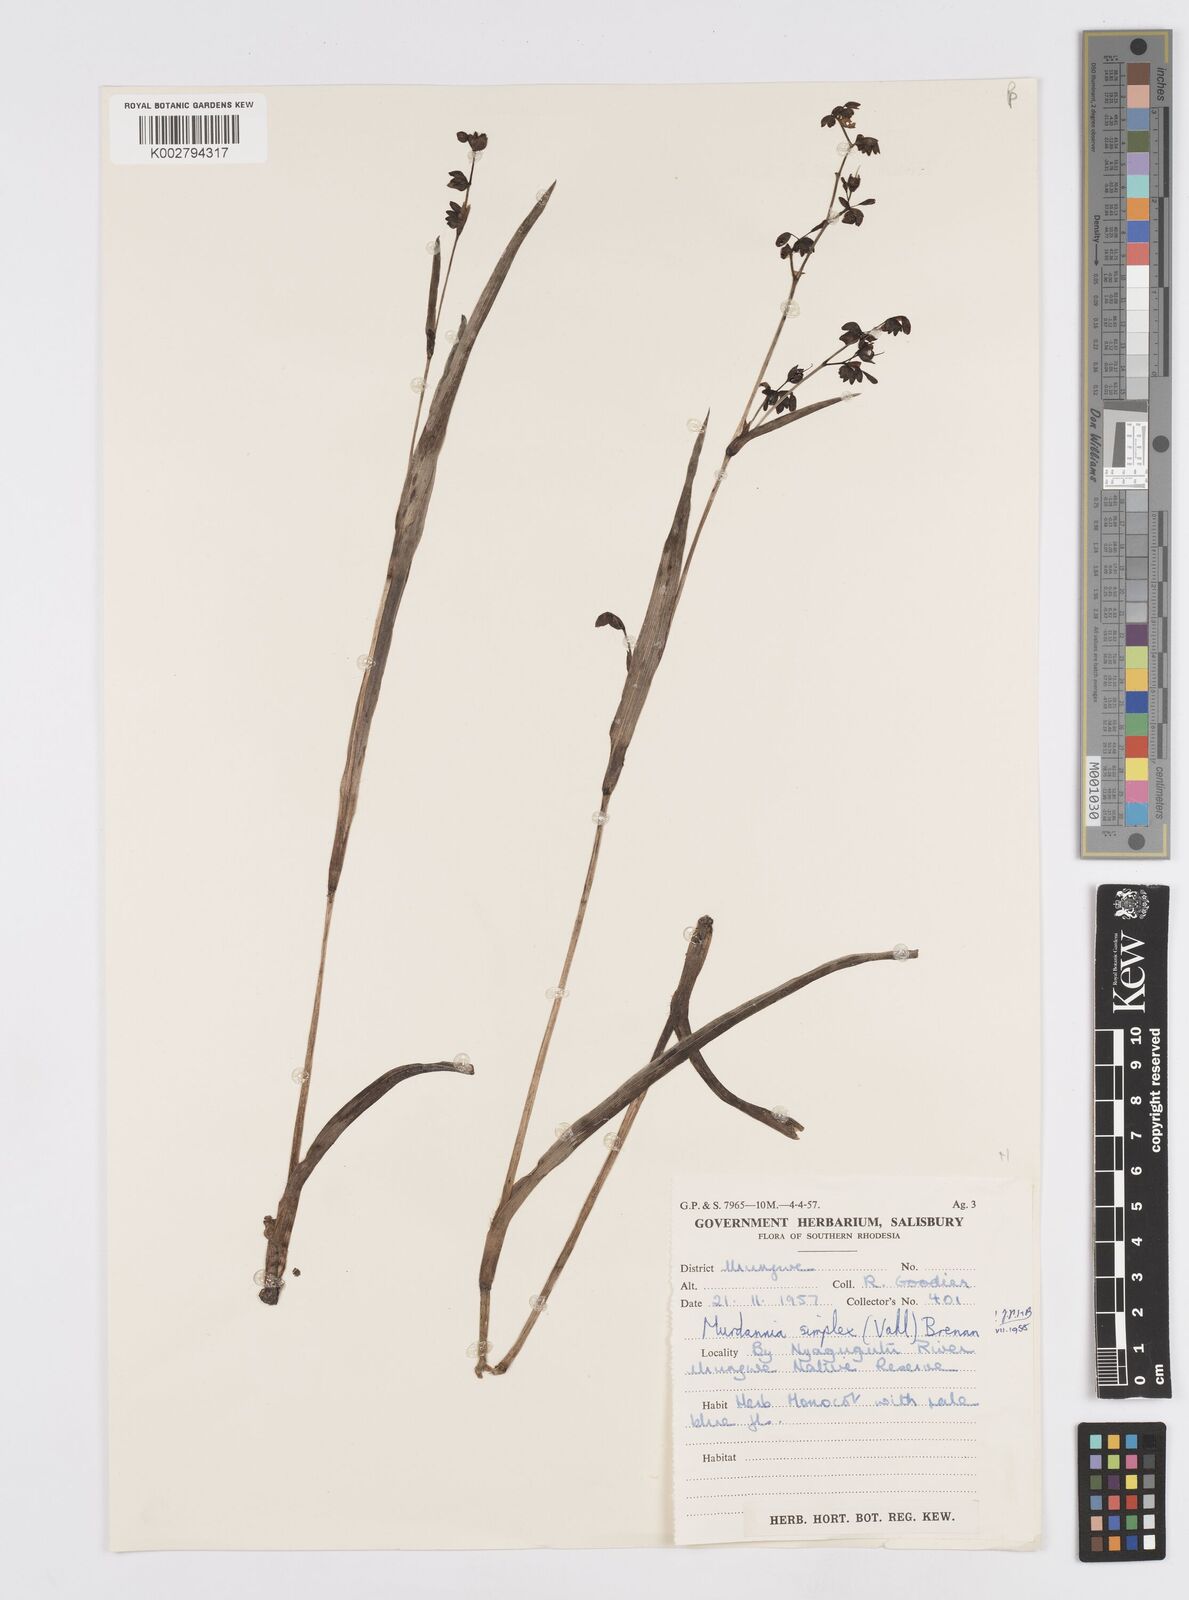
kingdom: Plantae
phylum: Tracheophyta
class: Liliopsida
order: Commelinales
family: Commelinaceae
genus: Murdannia
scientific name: Murdannia simplex
